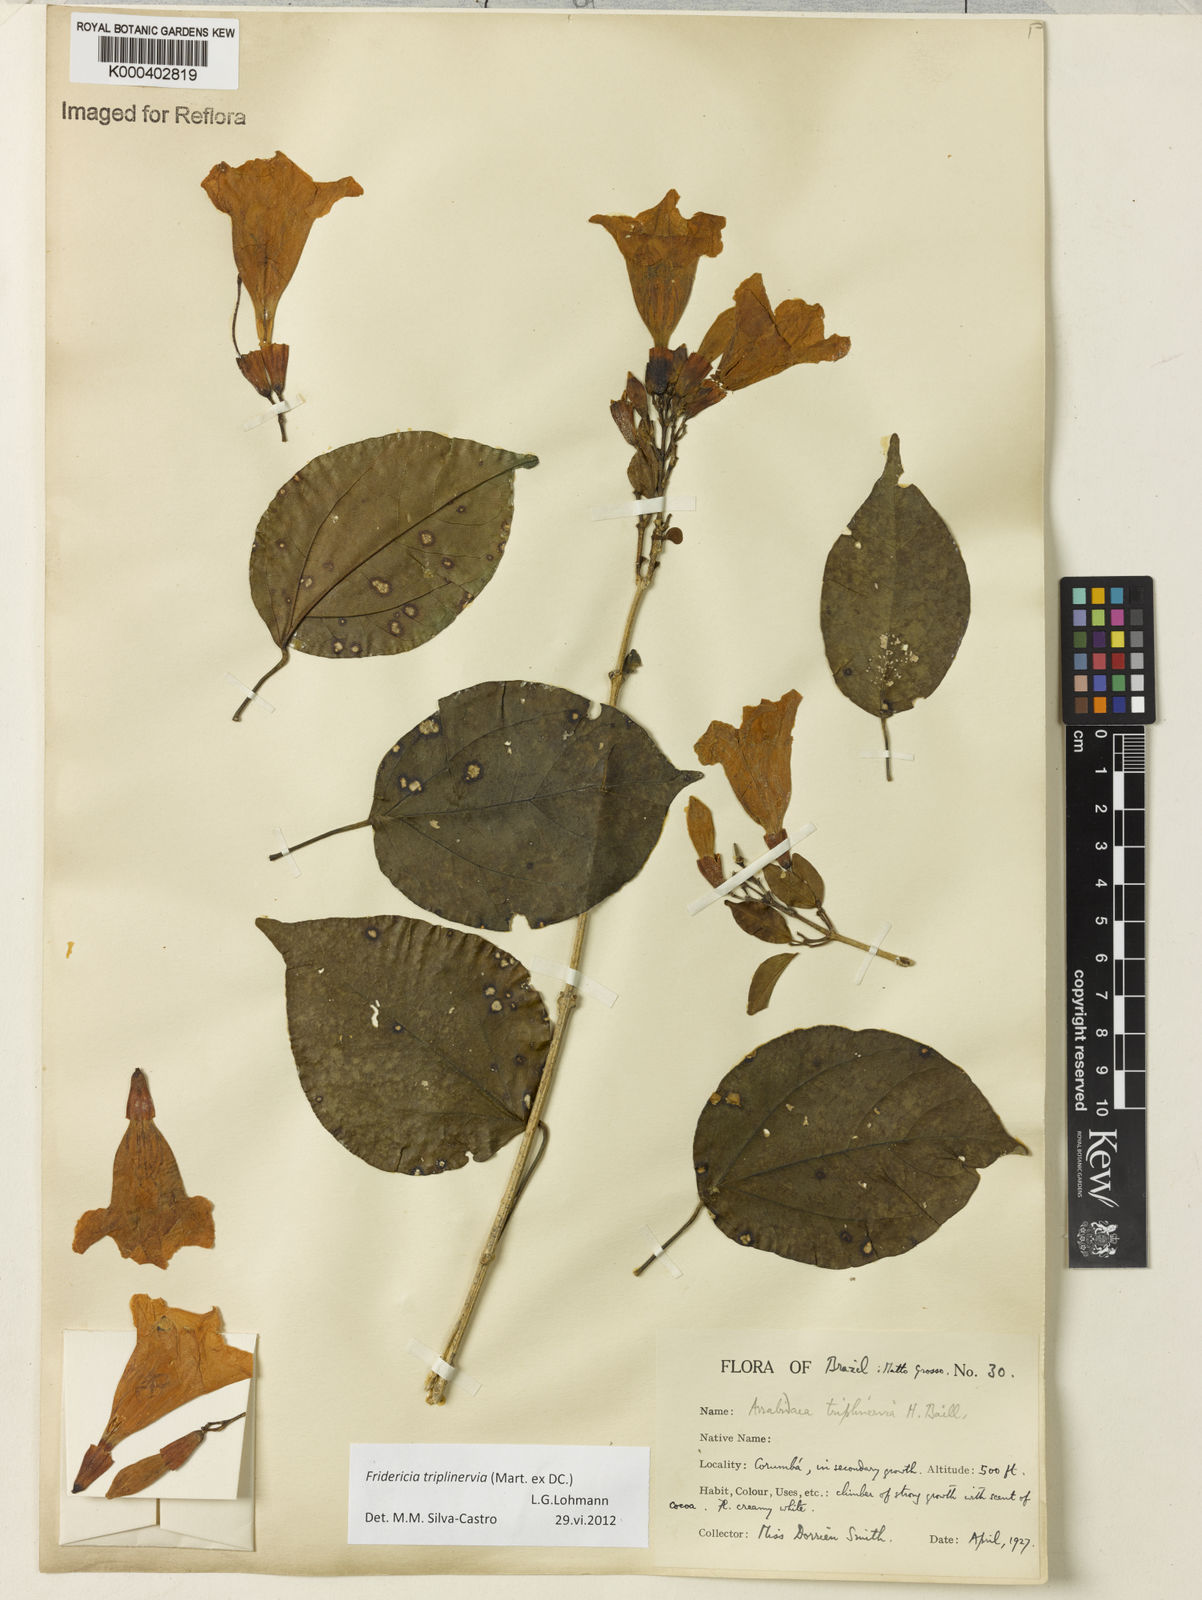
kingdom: Plantae
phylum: Tracheophyta
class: Magnoliopsida
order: Lamiales
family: Bignoniaceae
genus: Fridericia
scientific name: Fridericia triplinervia
